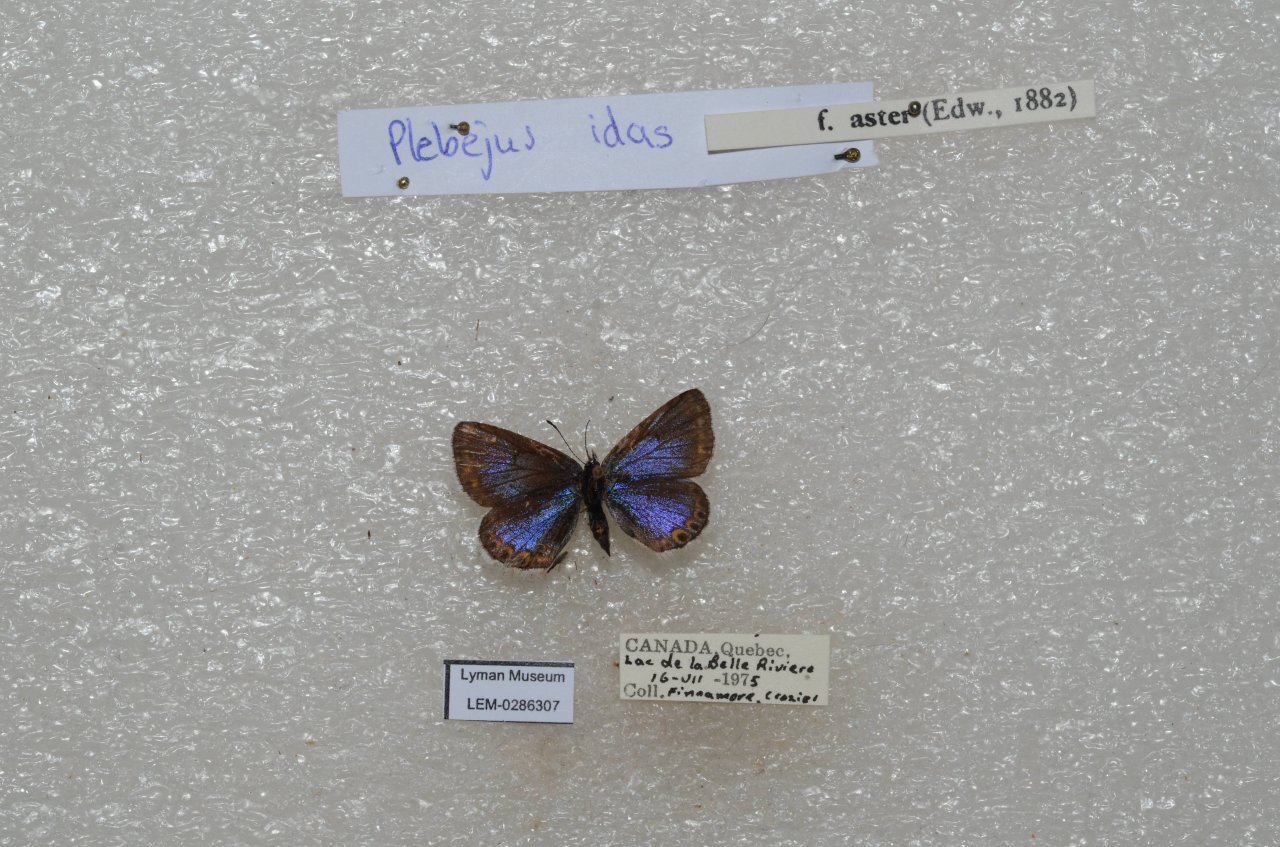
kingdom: Animalia
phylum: Arthropoda
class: Insecta
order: Lepidoptera
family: Lycaenidae
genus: Lycaeides
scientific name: Lycaeides idas
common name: Northern Blue
